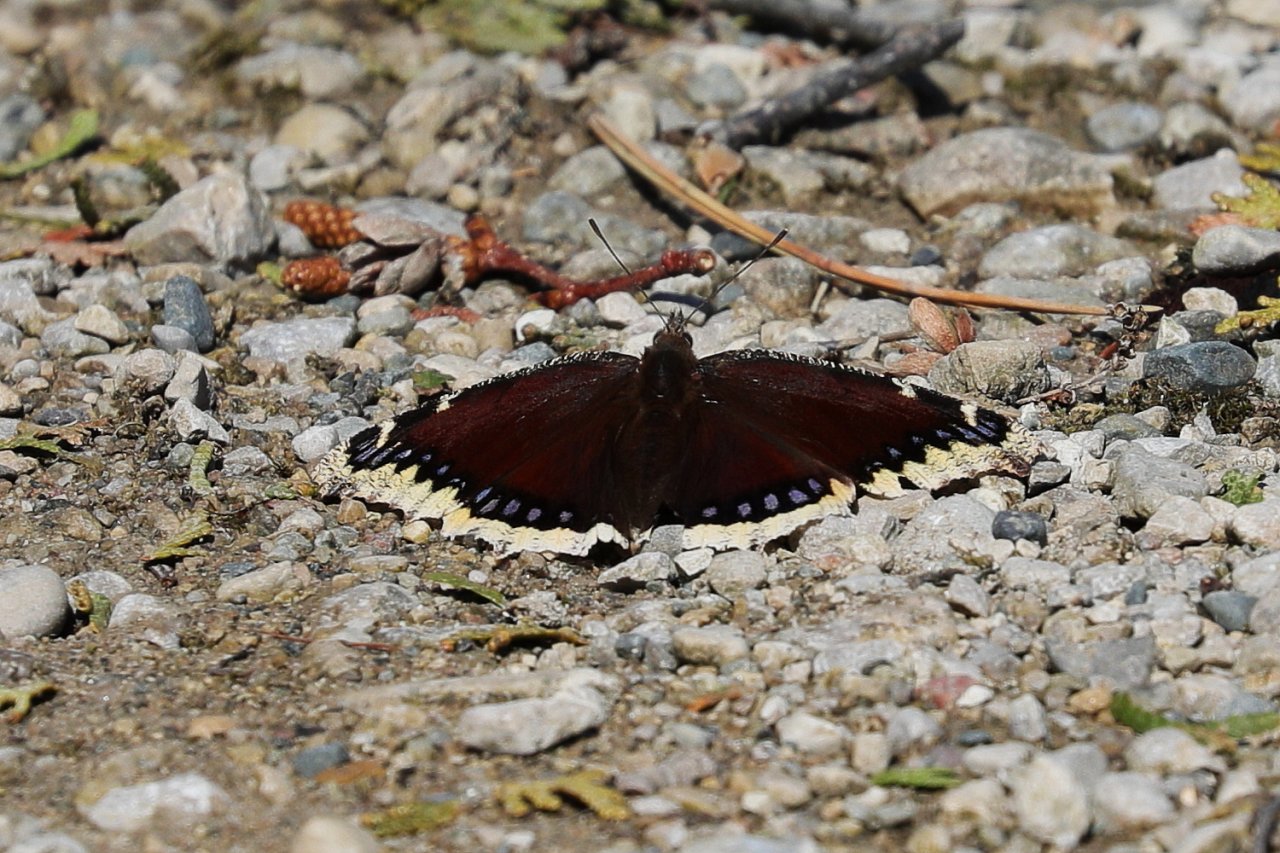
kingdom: Animalia
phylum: Arthropoda
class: Insecta
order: Lepidoptera
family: Nymphalidae
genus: Nymphalis
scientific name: Nymphalis antiopa
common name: Mourning Cloak
